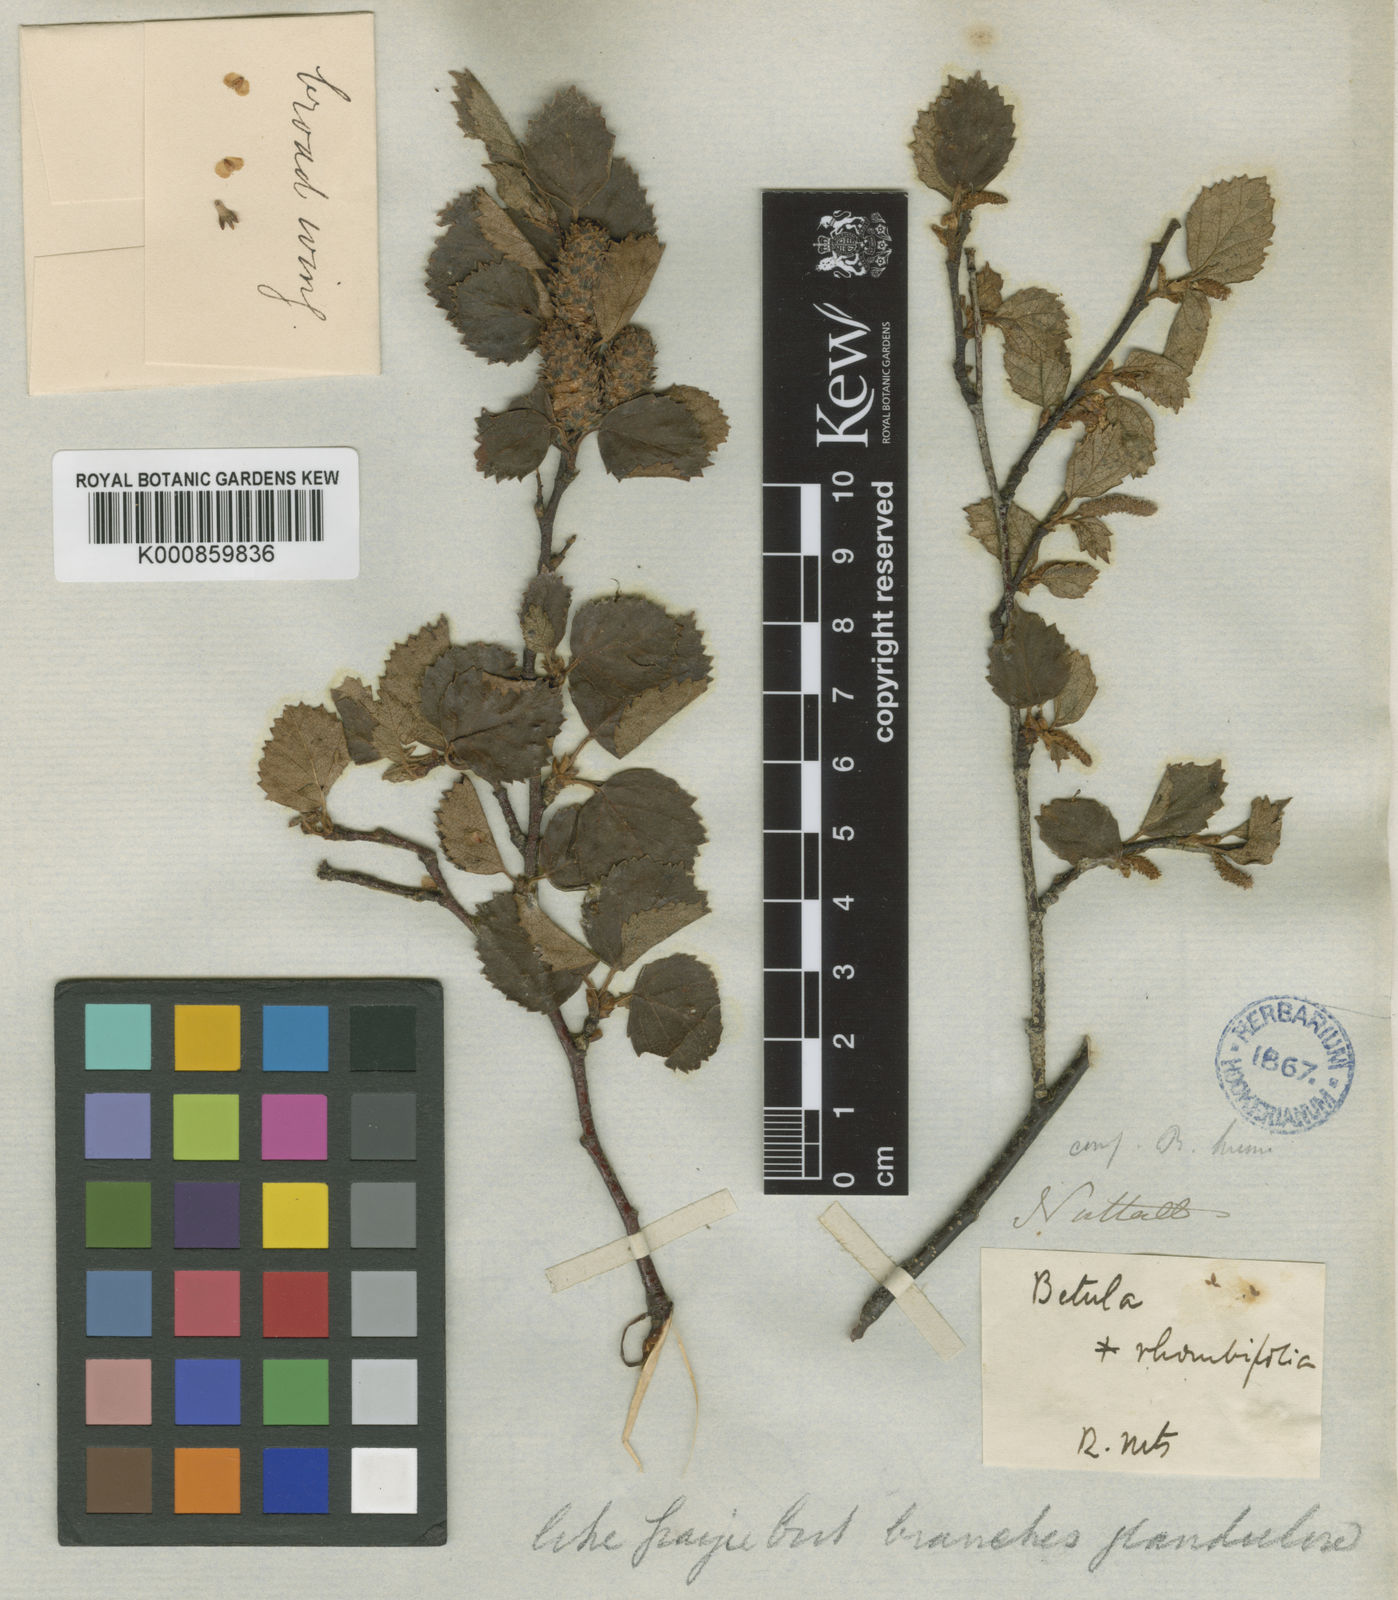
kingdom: Plantae
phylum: Tracheophyta
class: Magnoliopsida
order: Fagales
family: Betulaceae
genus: Betula
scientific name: Betula occidentalis
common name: River birch
